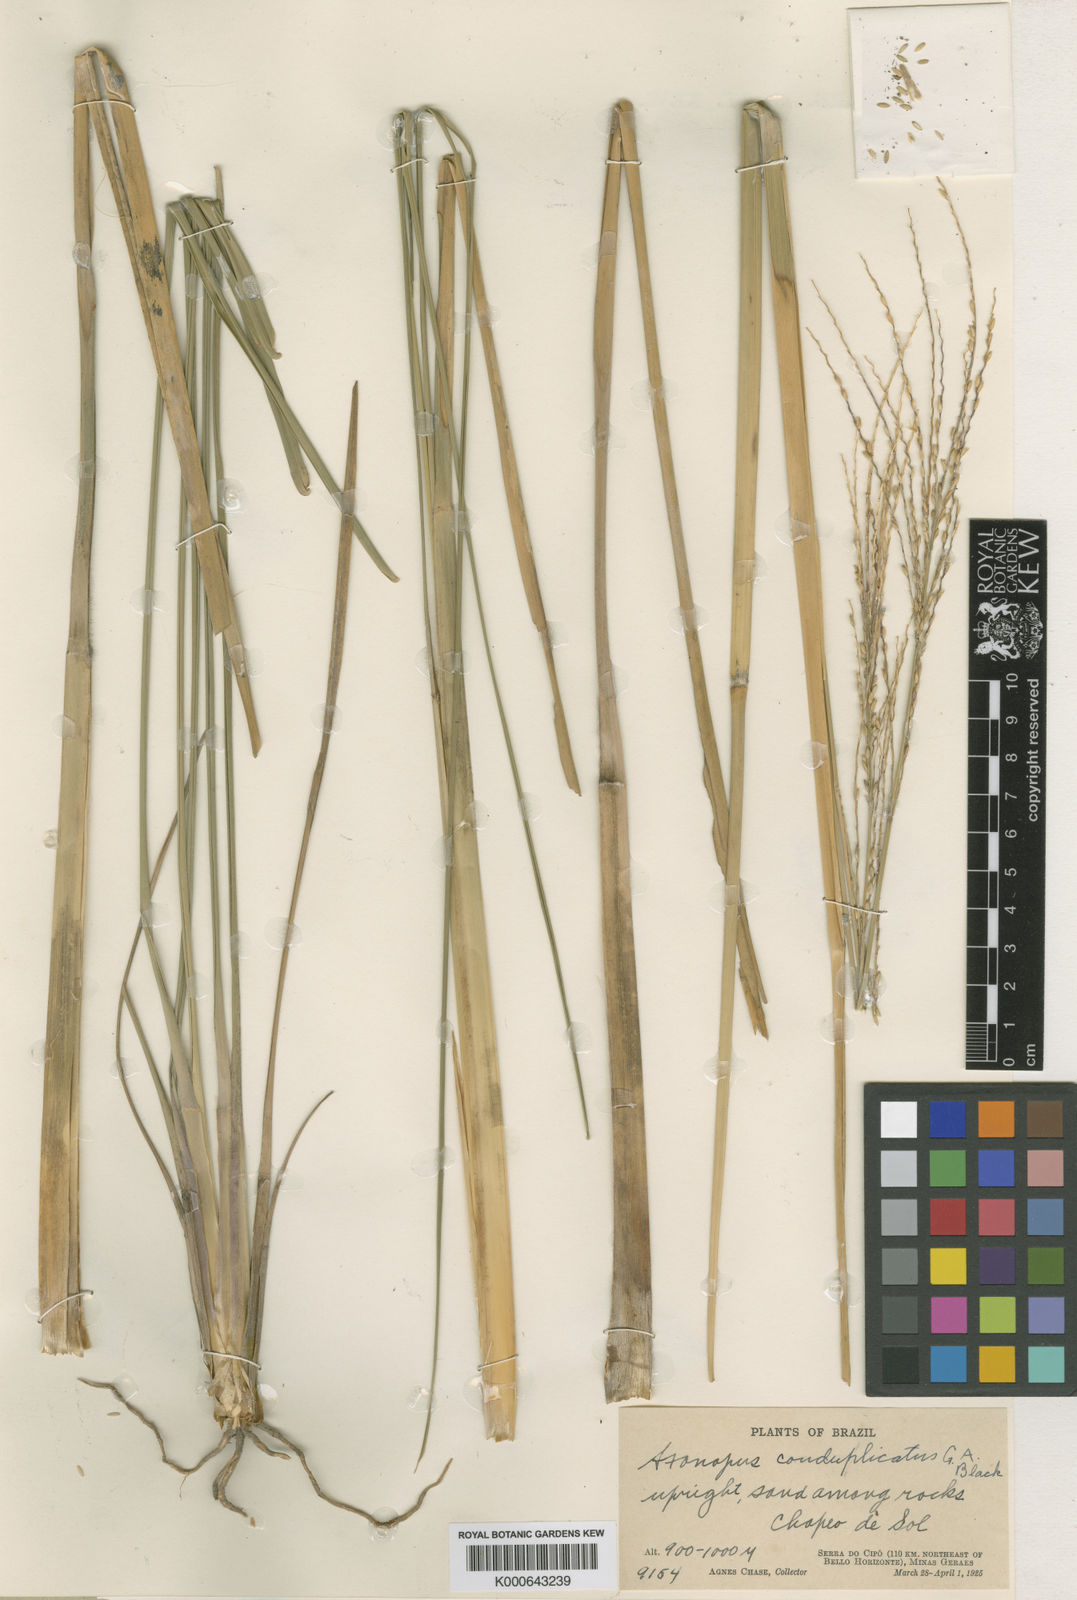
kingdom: Plantae
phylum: Tracheophyta
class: Liliopsida
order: Poales
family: Poaceae
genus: Axonopus
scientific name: Axonopus laxiflorus
